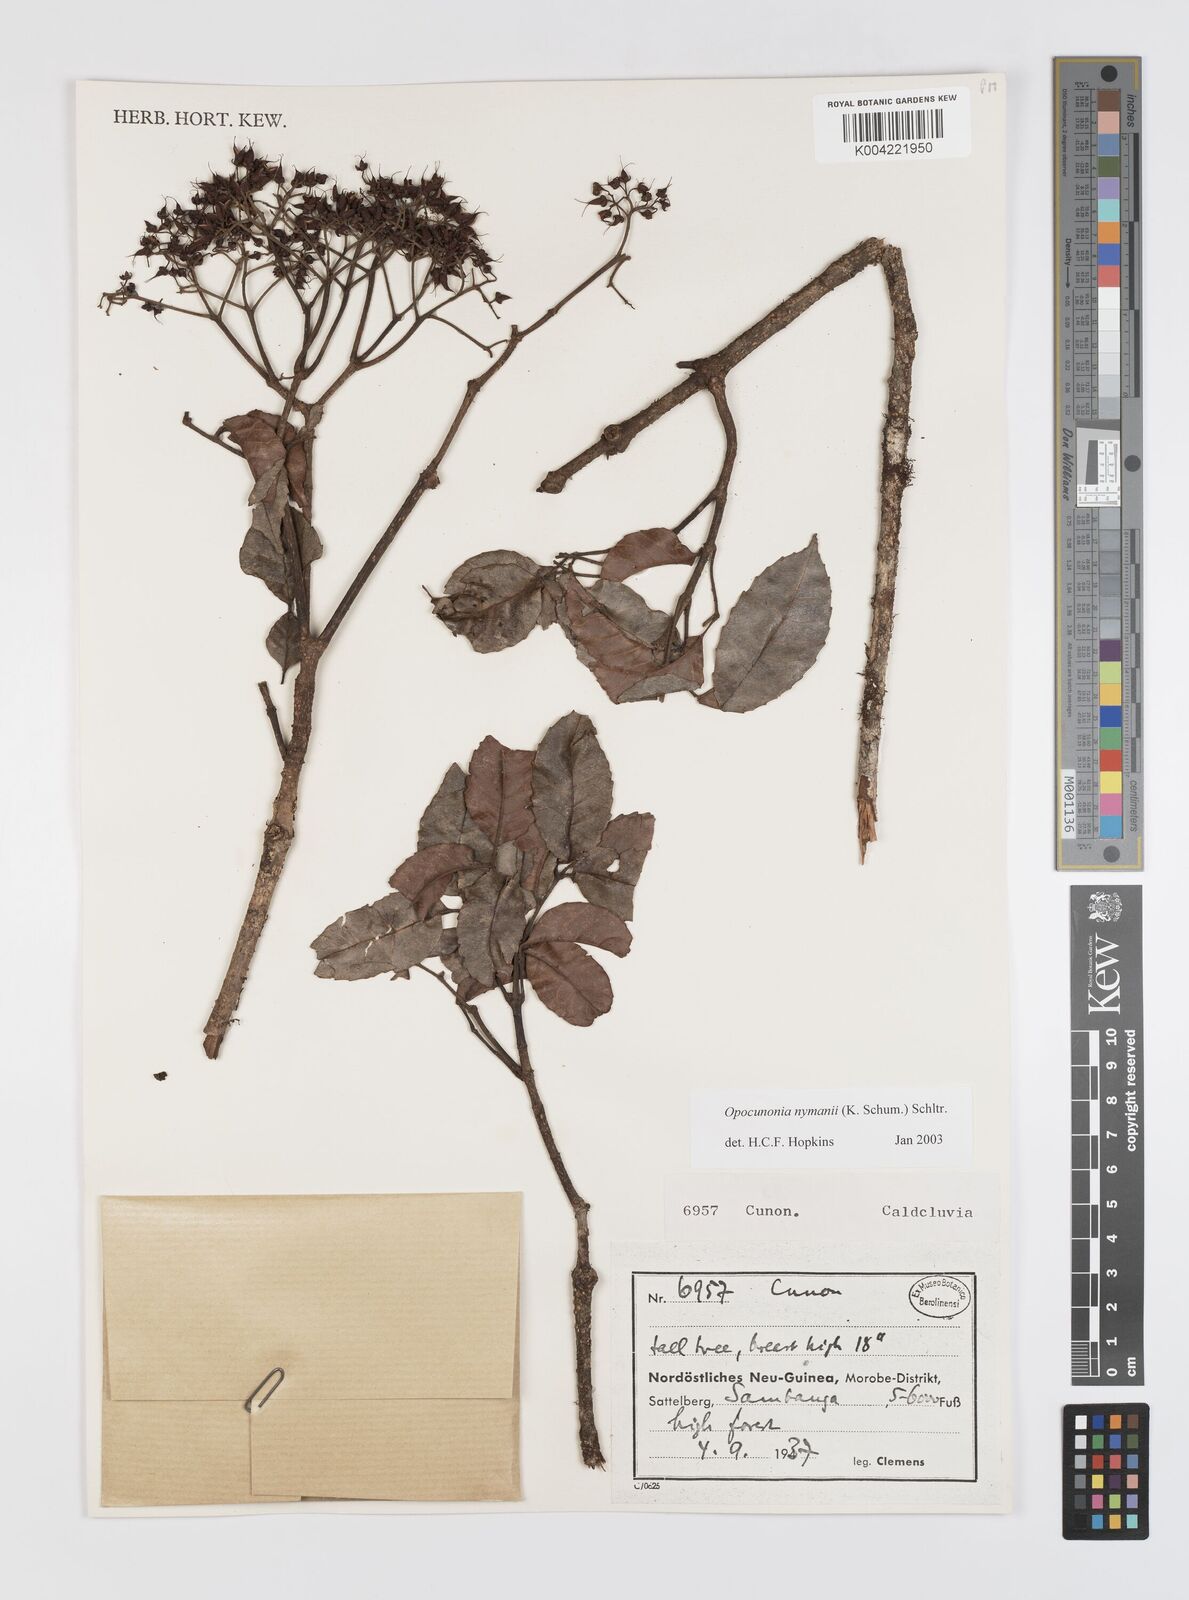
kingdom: Plantae
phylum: Tracheophyta
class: Magnoliopsida
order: Oxalidales
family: Cunoniaceae
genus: Opocunonia
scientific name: Opocunonia nymanii
